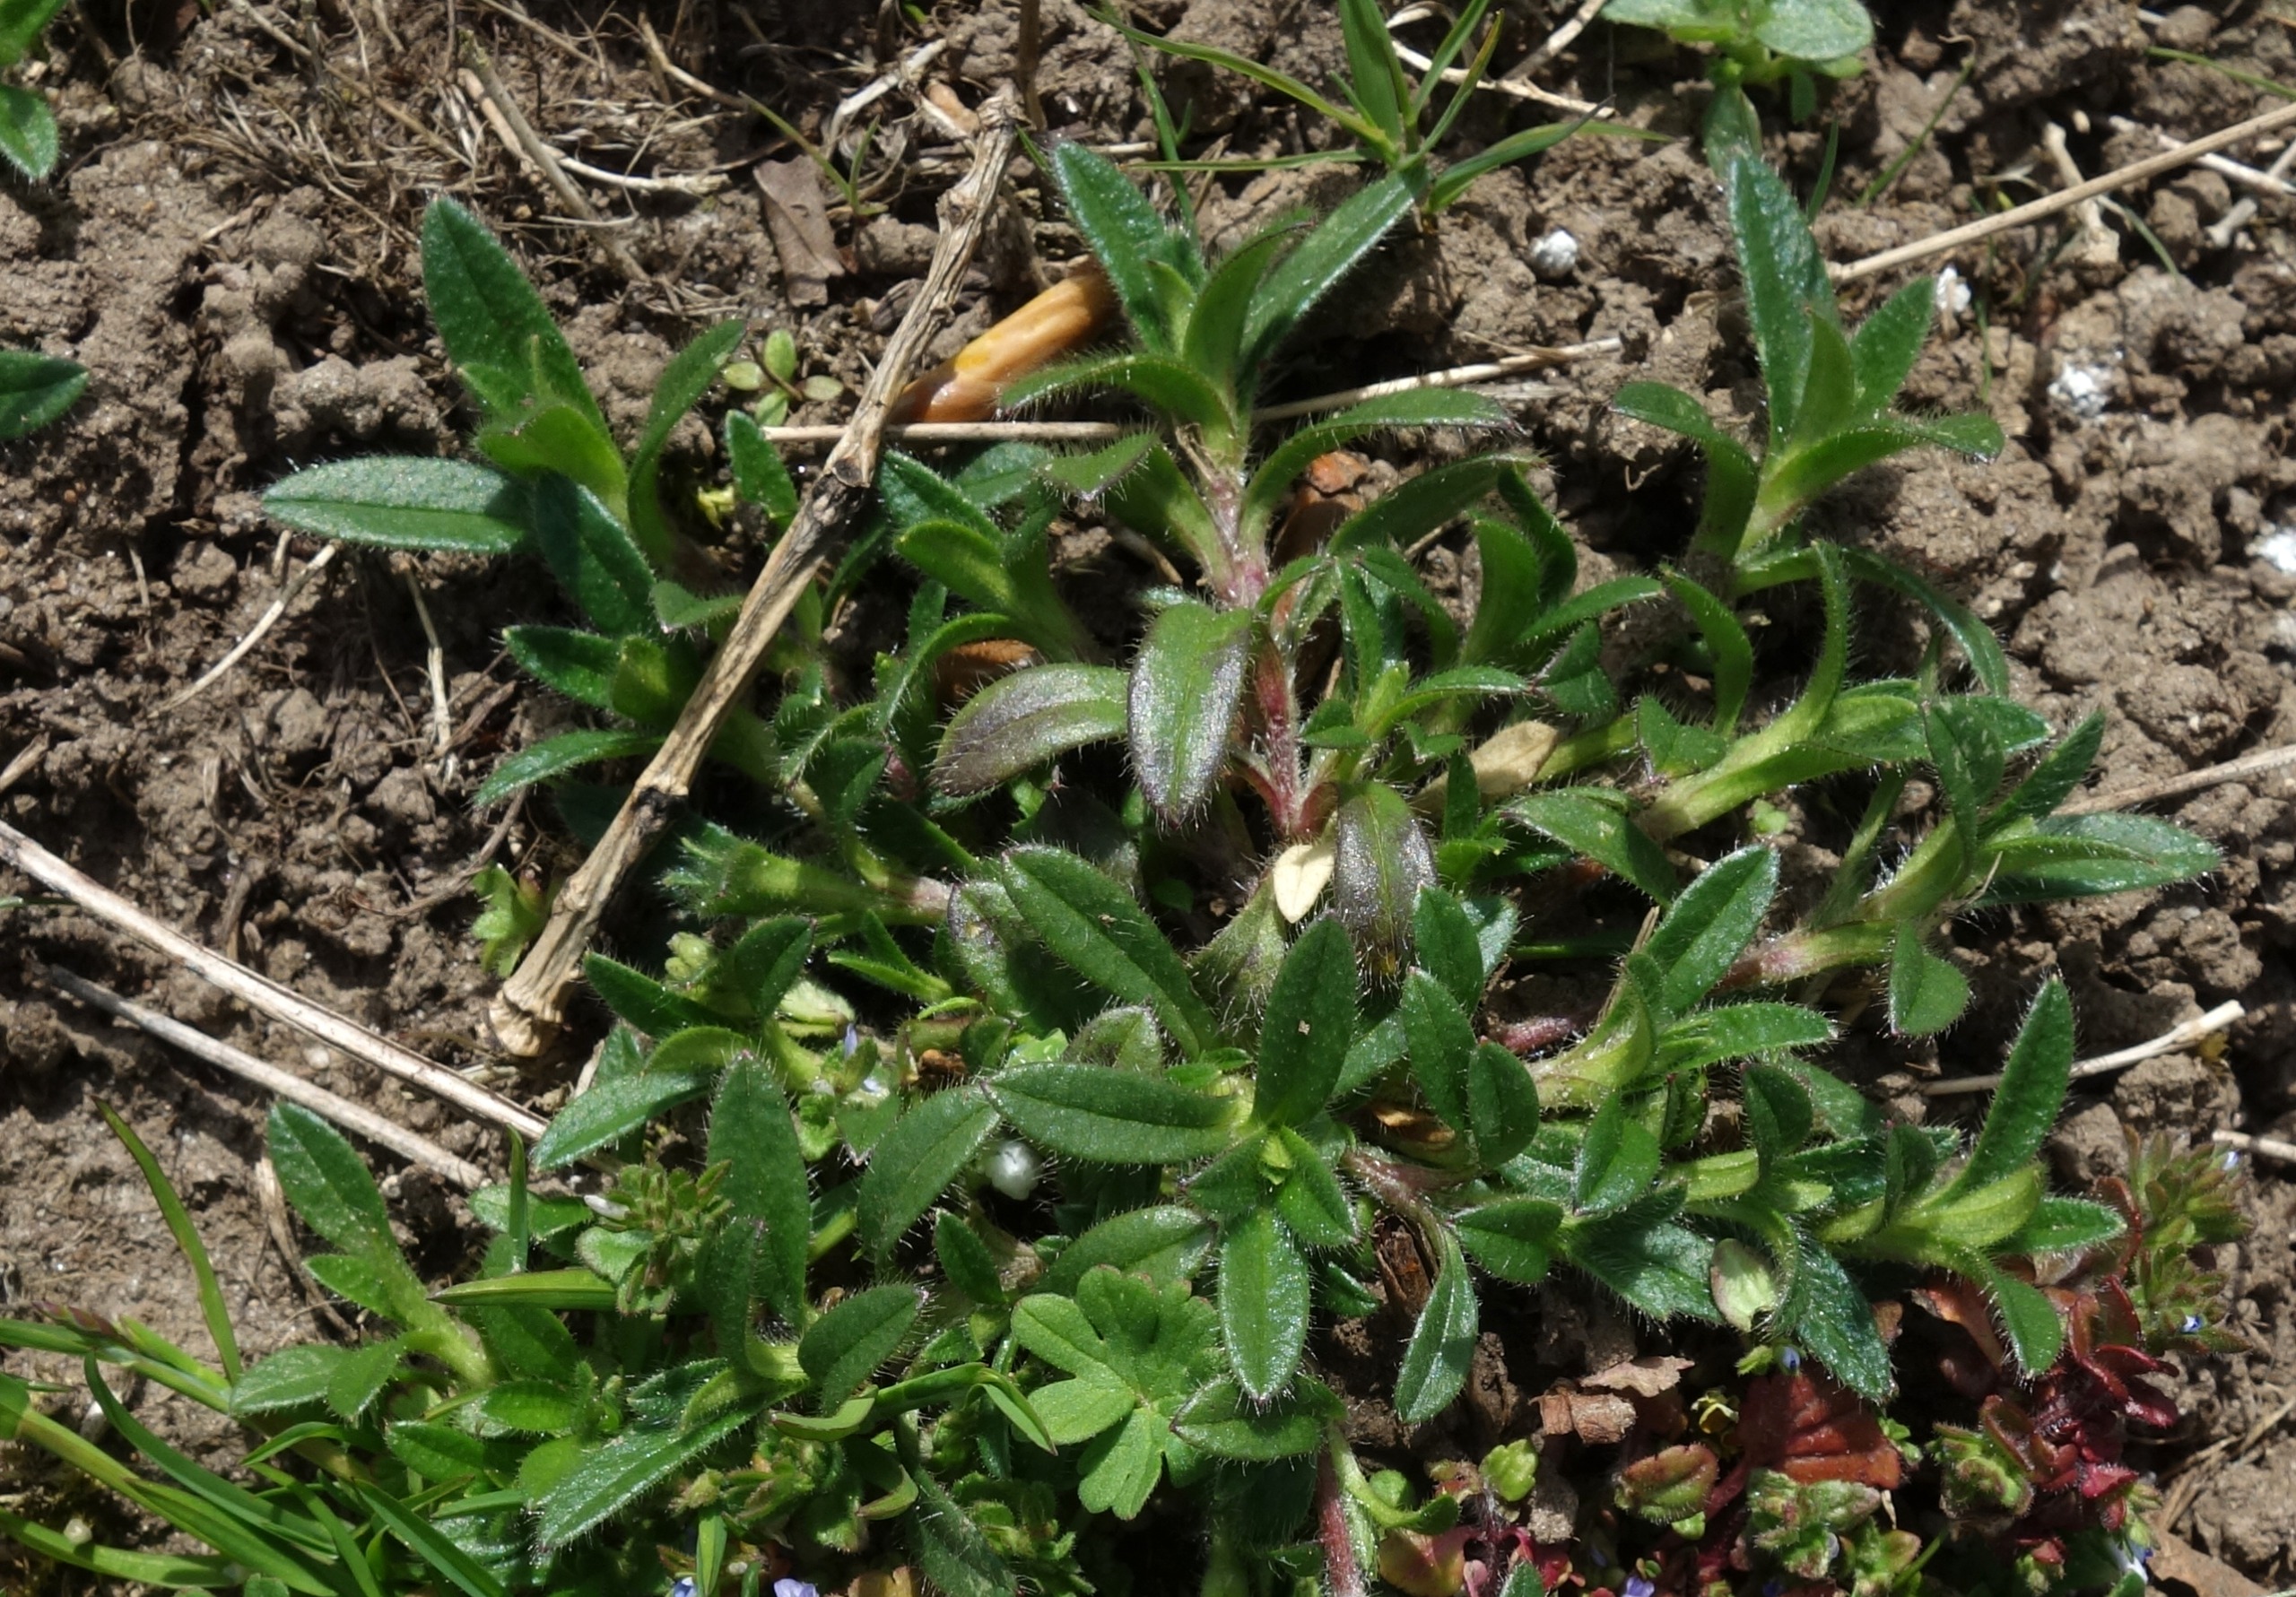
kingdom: Plantae
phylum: Tracheophyta
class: Magnoliopsida
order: Caryophyllales
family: Caryophyllaceae
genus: Cerastium
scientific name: Cerastium fontanum
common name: Almindelig hønsetarm
